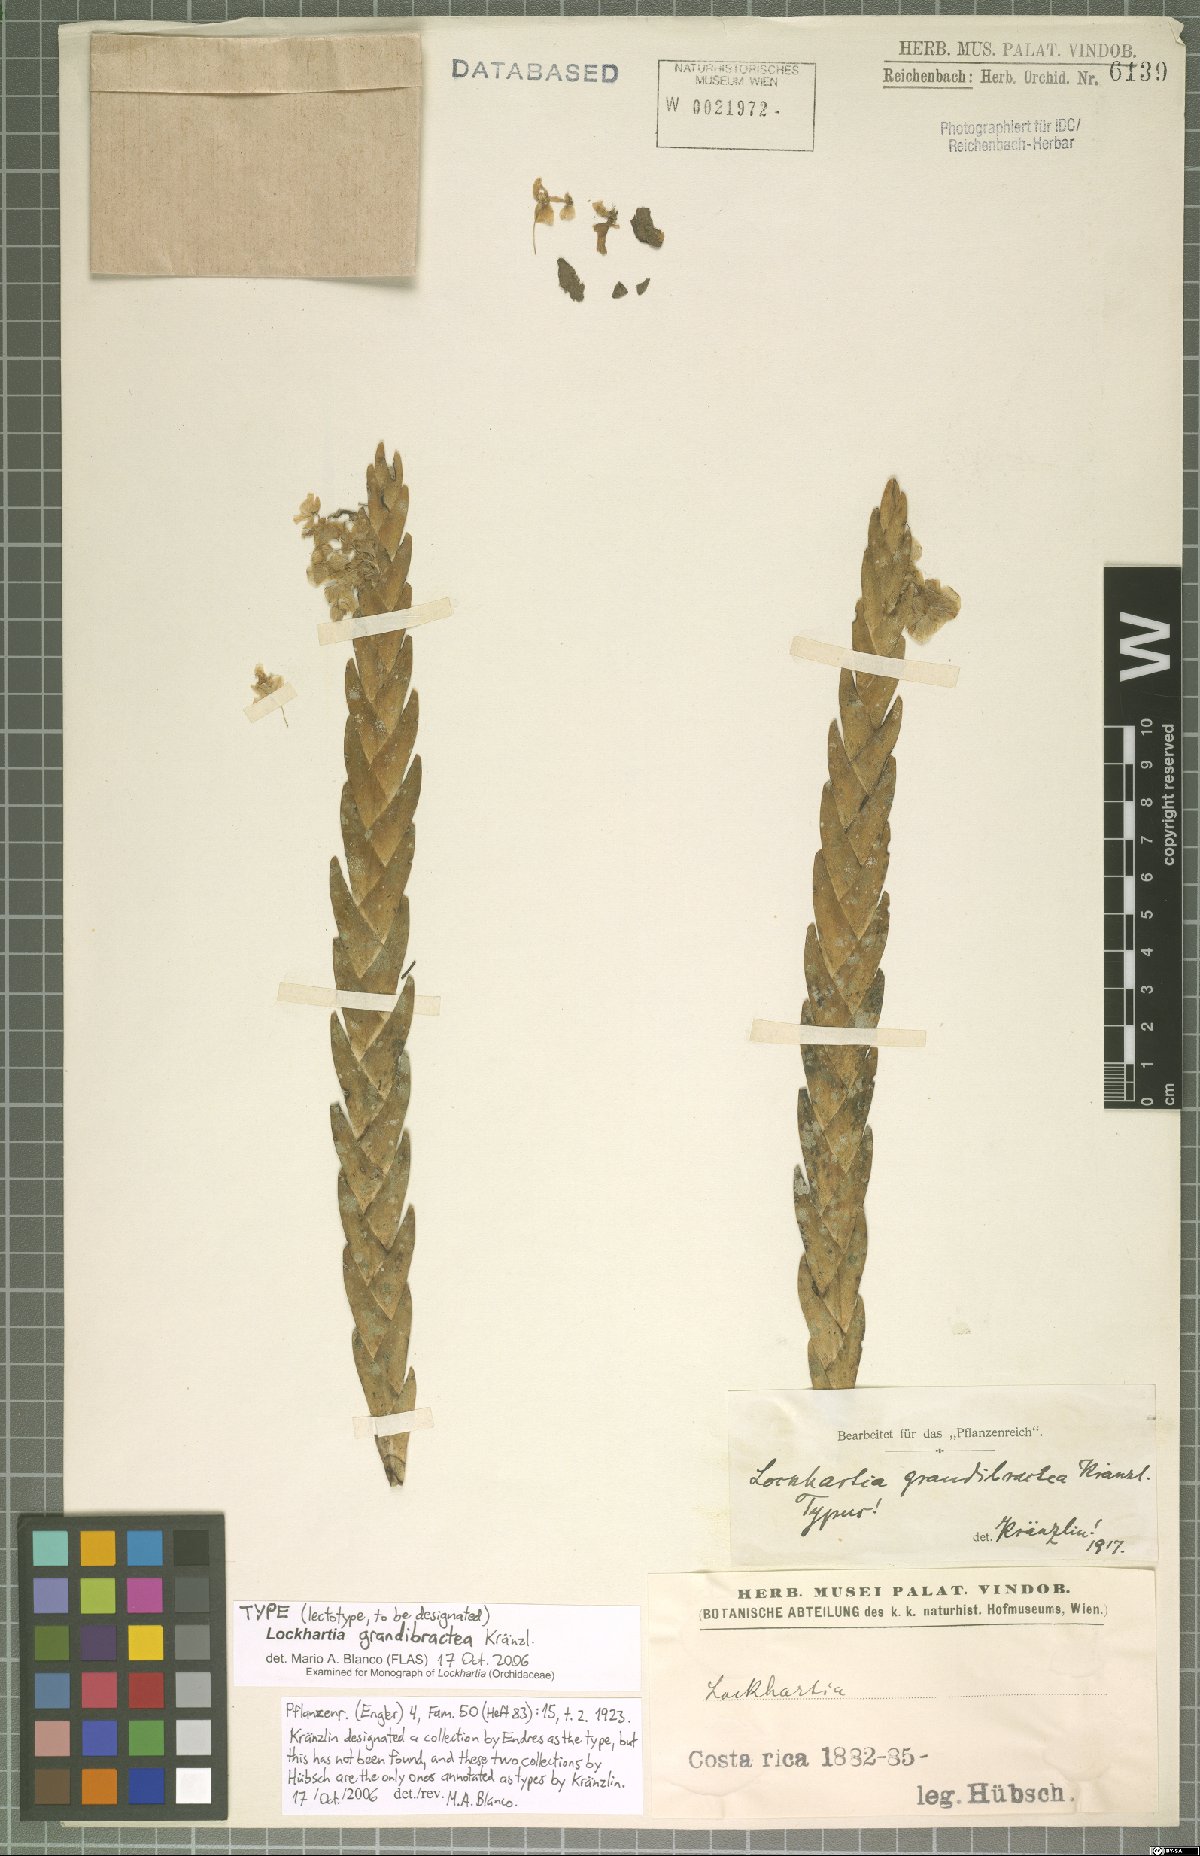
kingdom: Plantae
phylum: Tracheophyta
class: Liliopsida
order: Asparagales
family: Orchidaceae
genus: Lockhartia
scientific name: Lockhartia amoena
